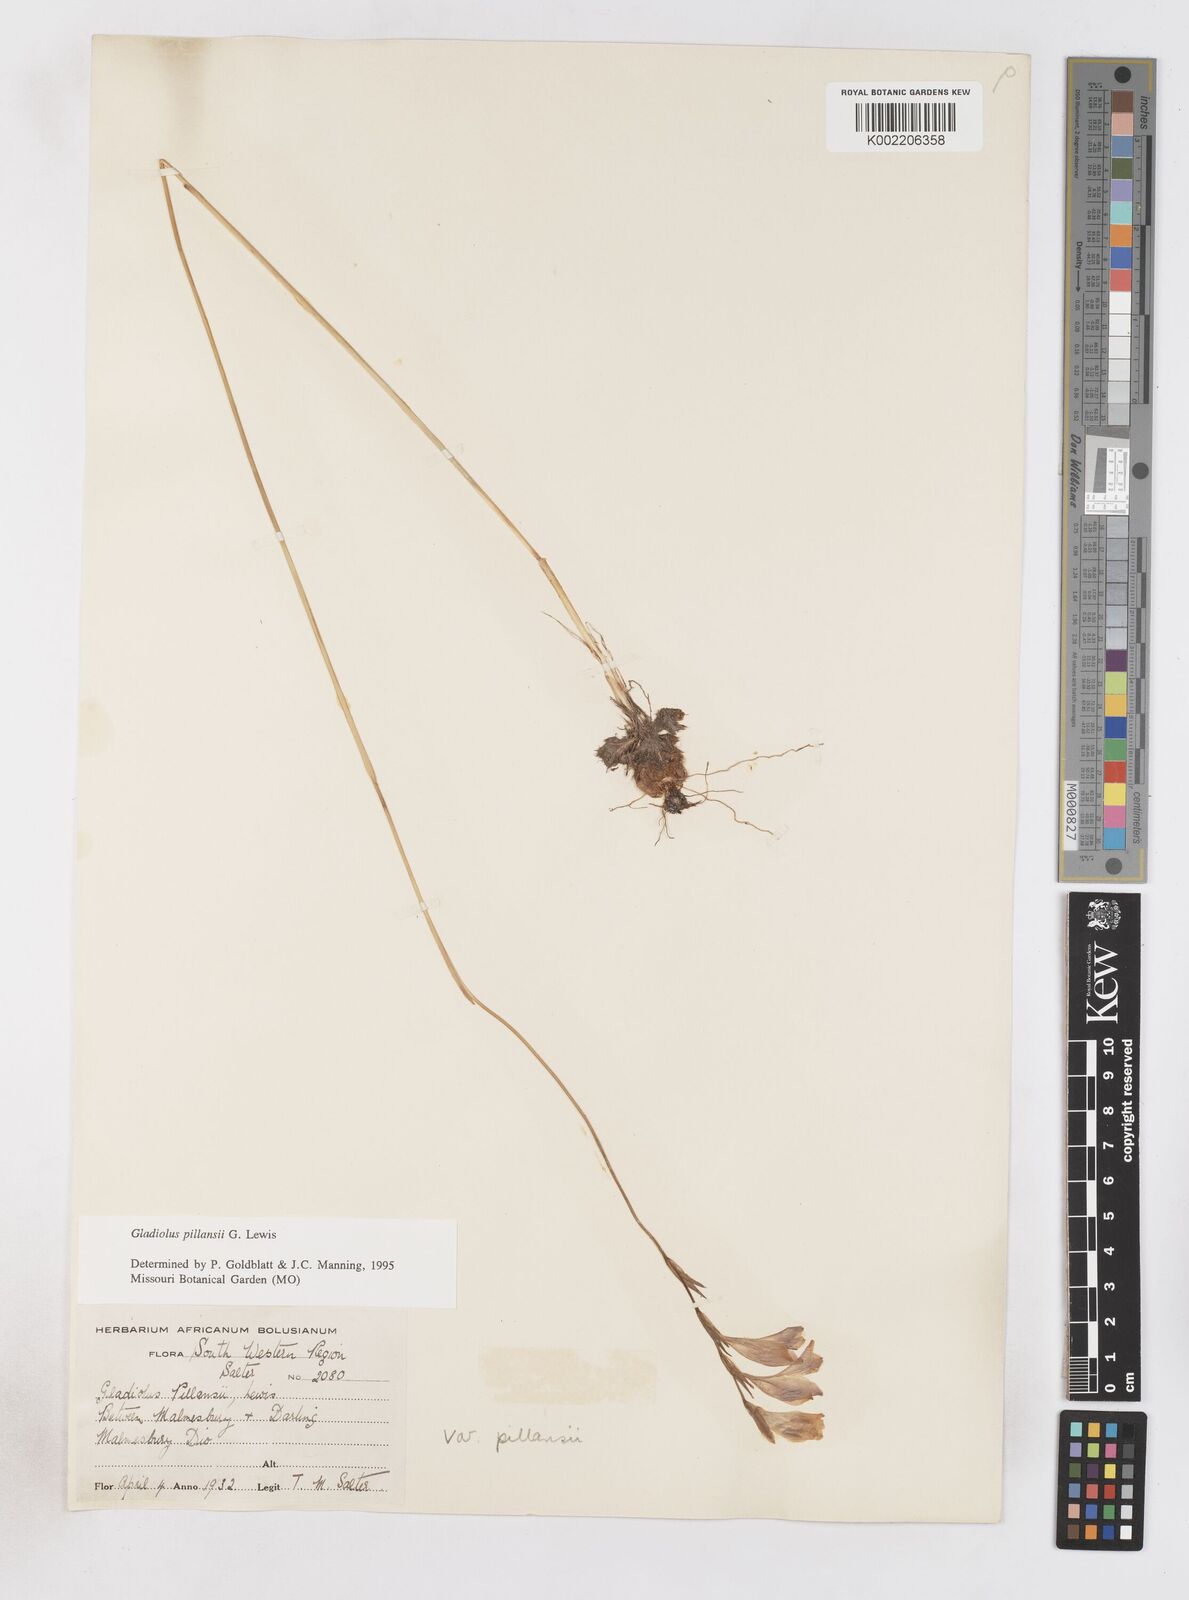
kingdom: Plantae
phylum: Tracheophyta
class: Liliopsida
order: Asparagales
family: Iridaceae
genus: Gladiolus
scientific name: Gladiolus martleyi
